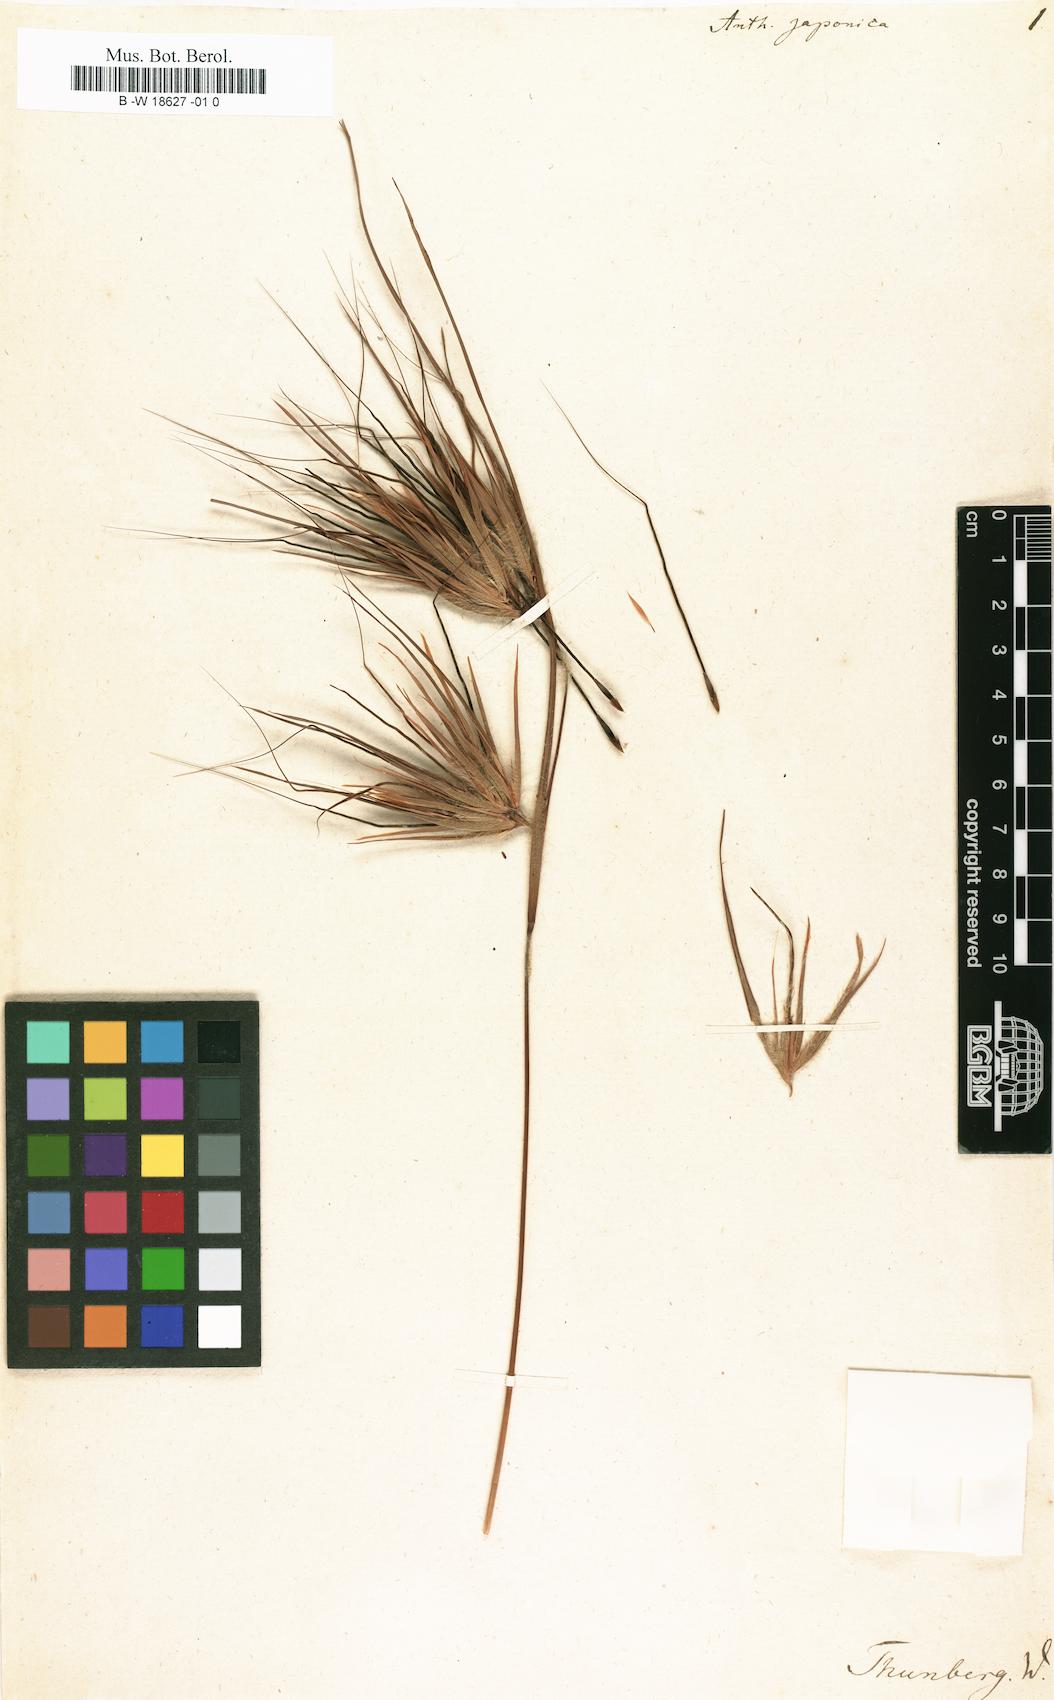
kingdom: Plantae
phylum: Tracheophyta
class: Liliopsida
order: Poales
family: Poaceae
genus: Themeda
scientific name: Themeda triandra
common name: Kangaroo grass
